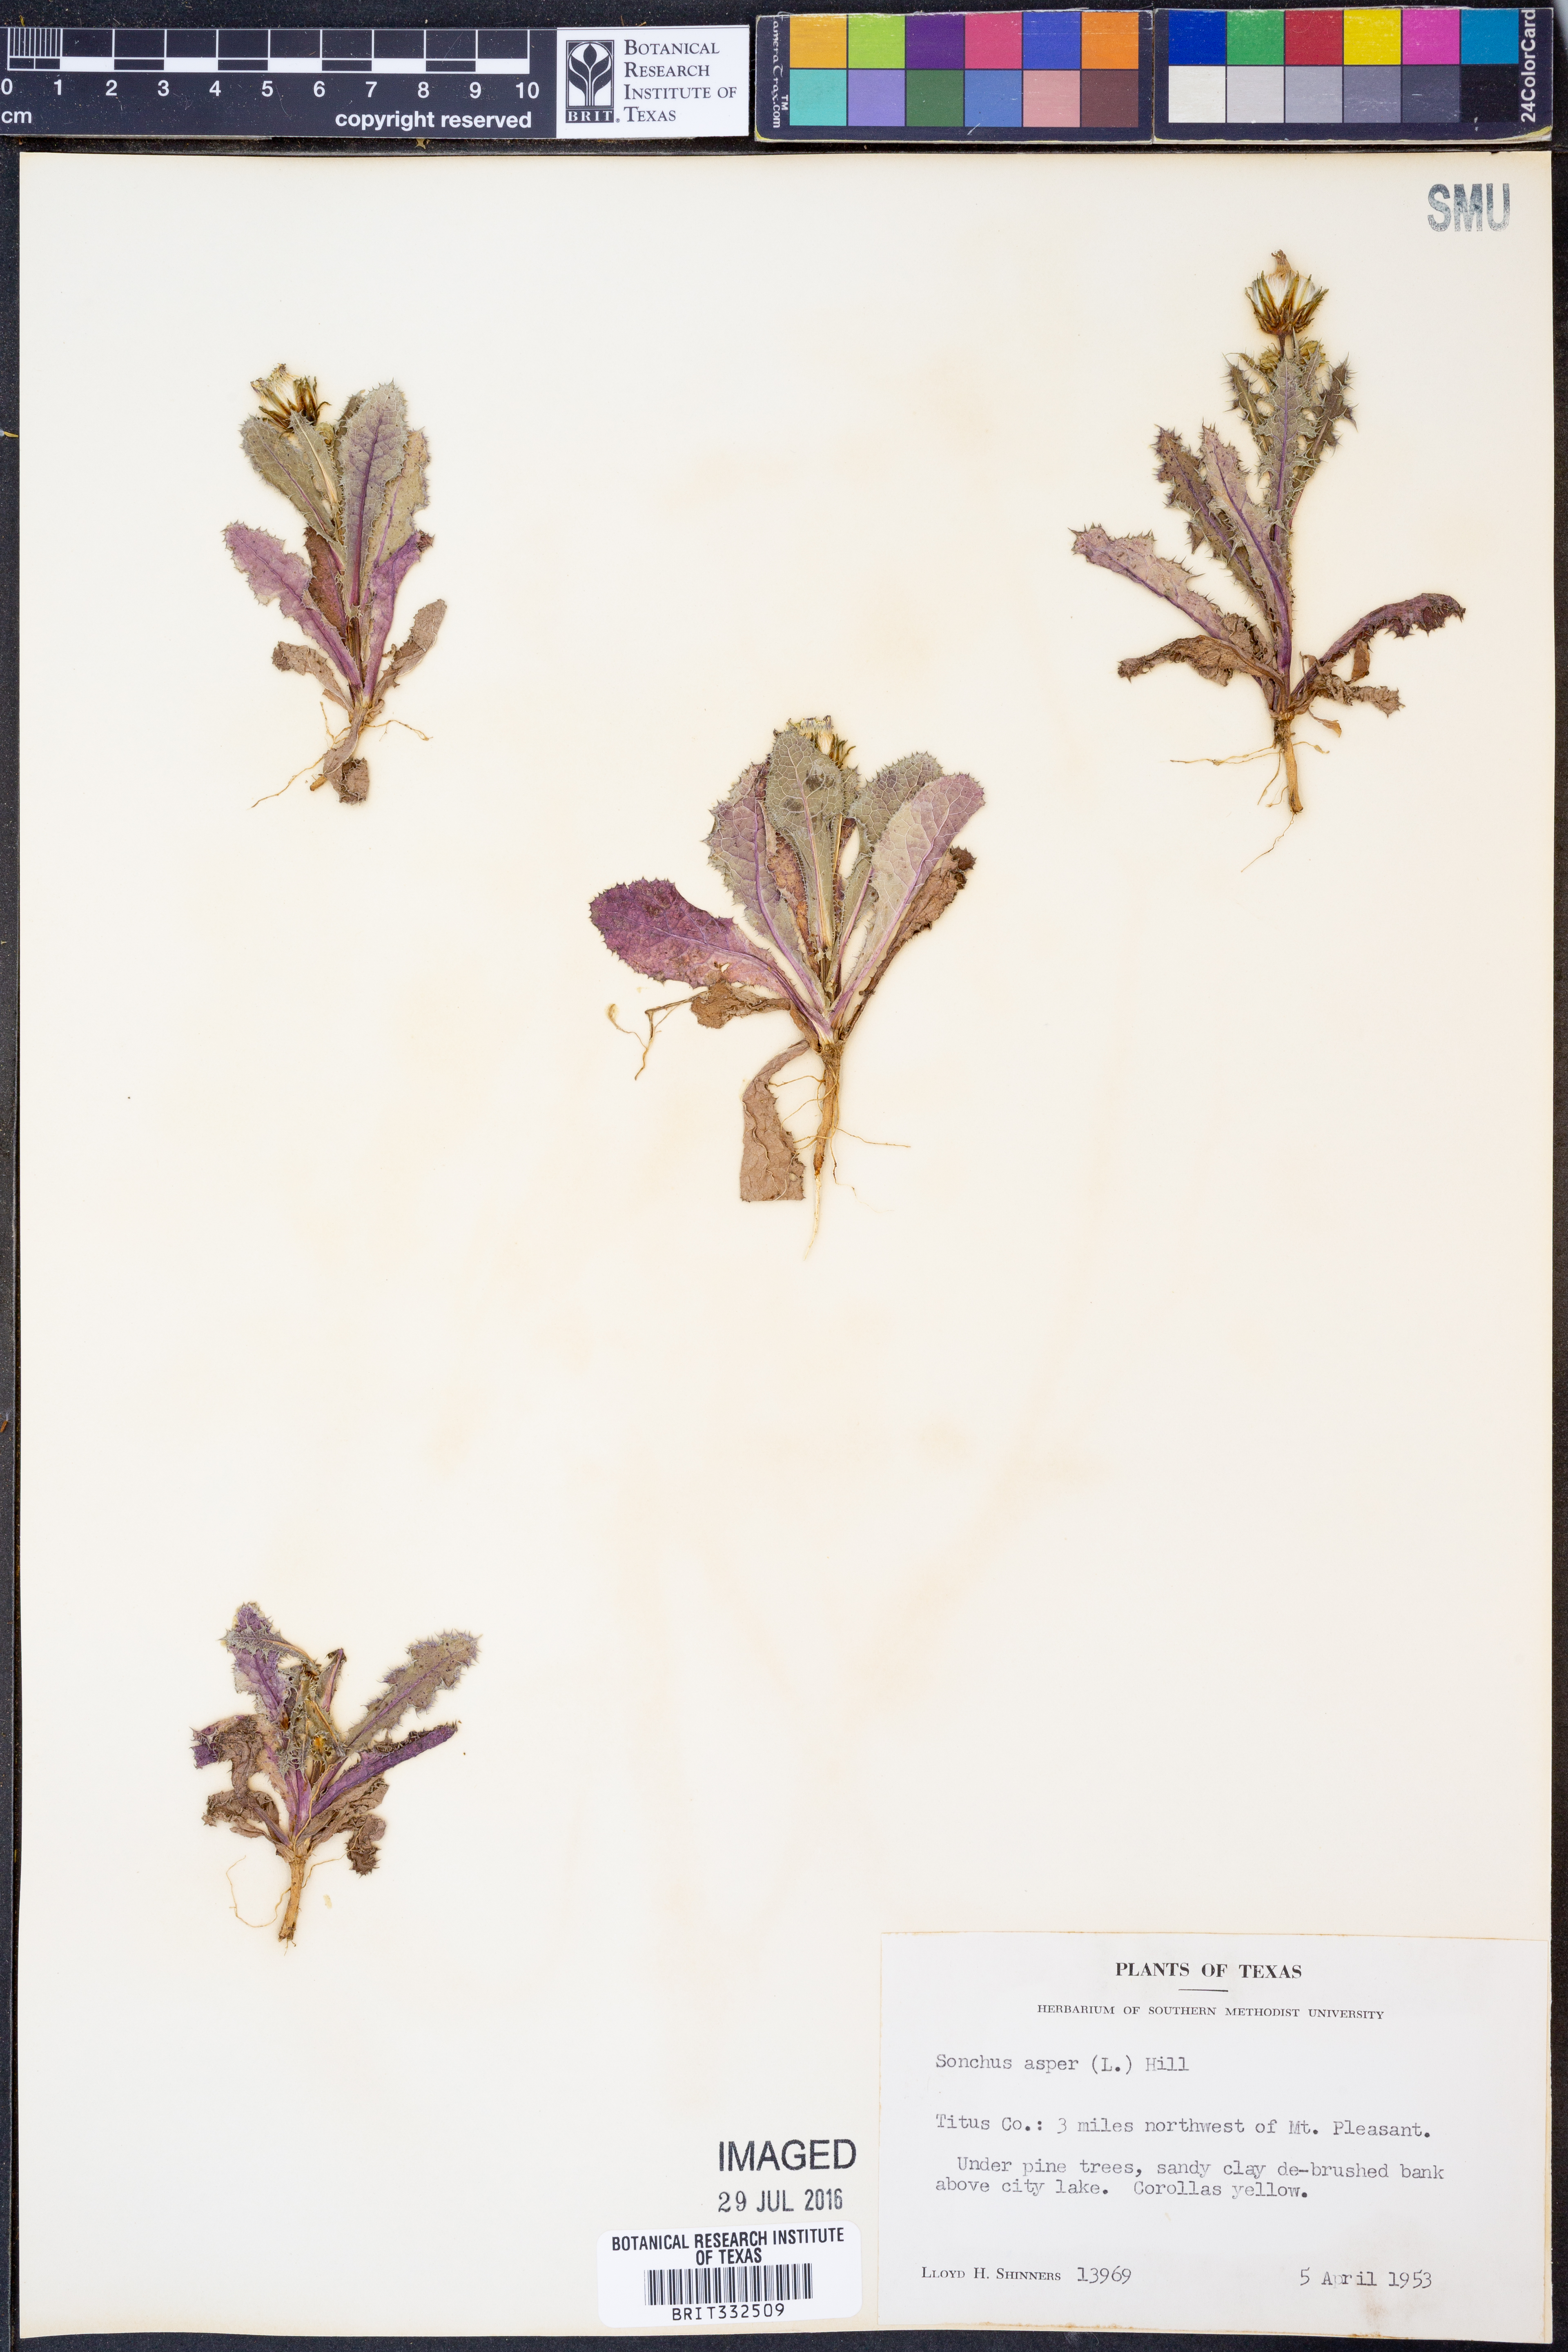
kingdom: Plantae
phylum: Tracheophyta
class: Magnoliopsida
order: Asterales
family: Asteraceae
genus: Sonchus
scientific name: Sonchus asper
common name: Prickly sow-thistle
